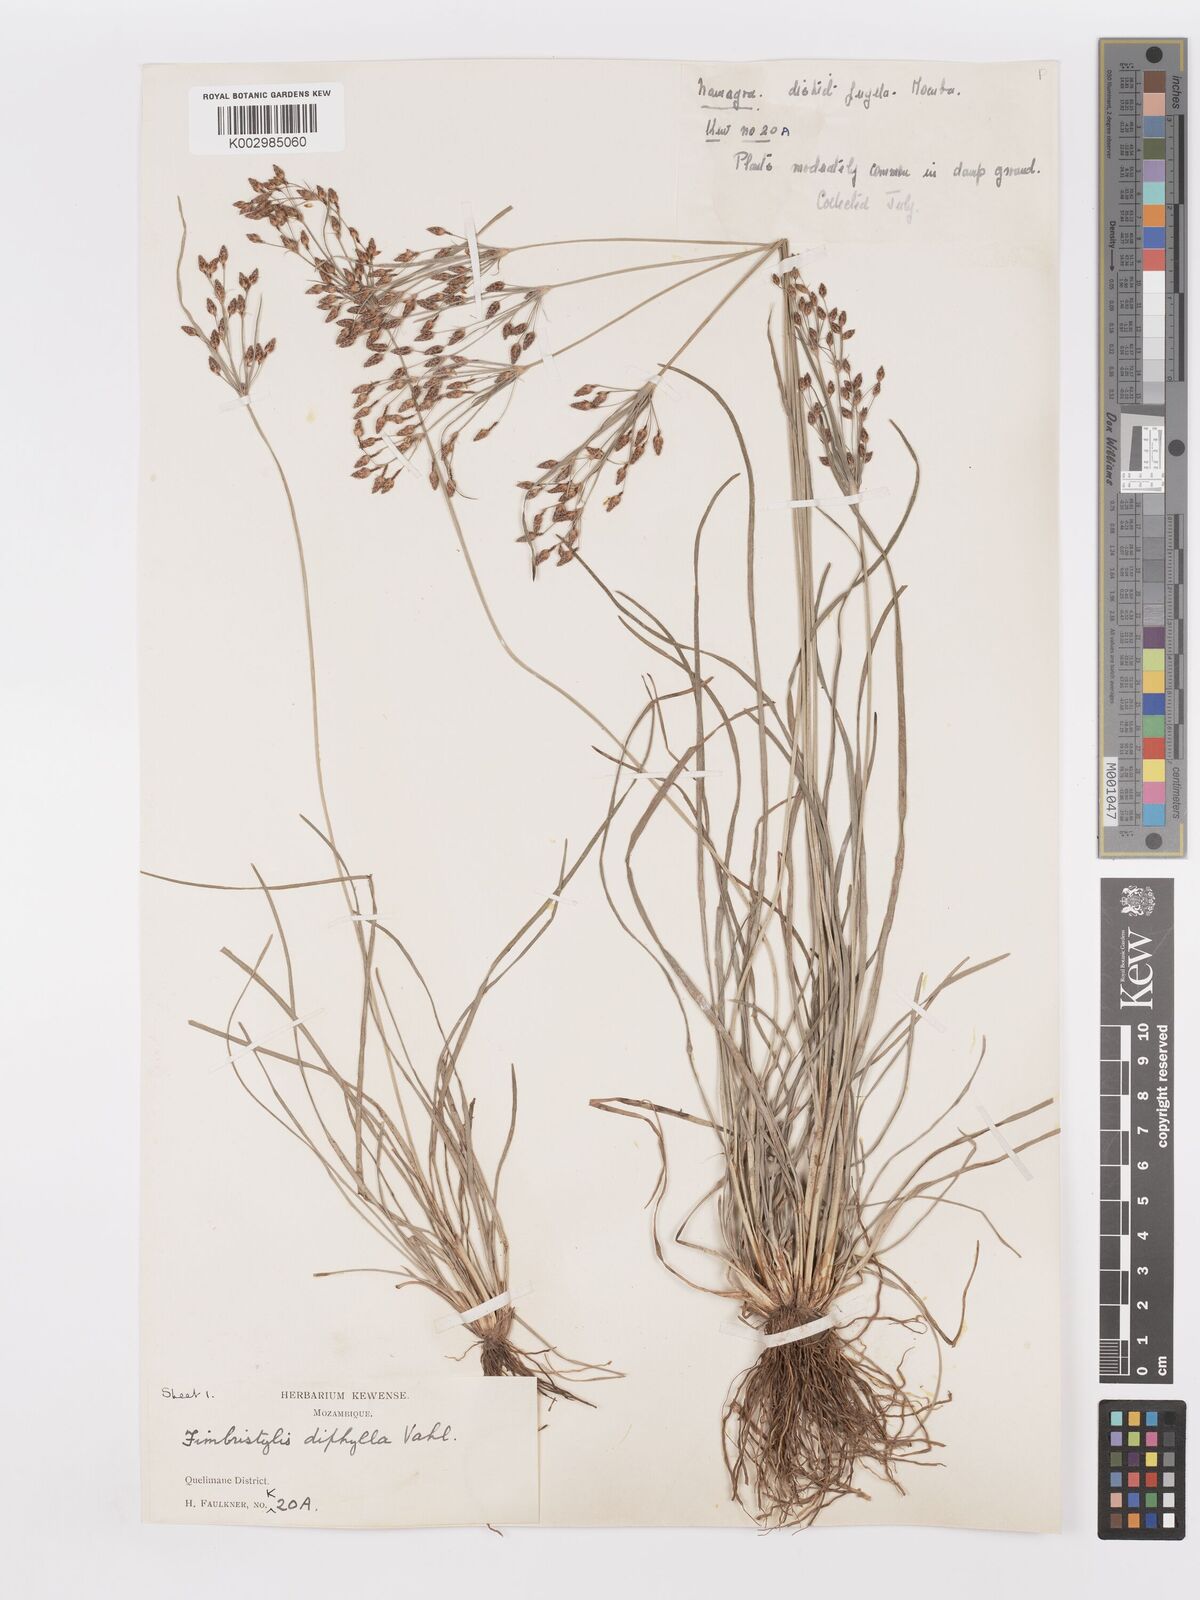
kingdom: Plantae
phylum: Tracheophyta
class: Liliopsida
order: Poales
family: Cyperaceae
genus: Fimbristylis
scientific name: Fimbristylis dichotoma
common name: Forked fimbry
